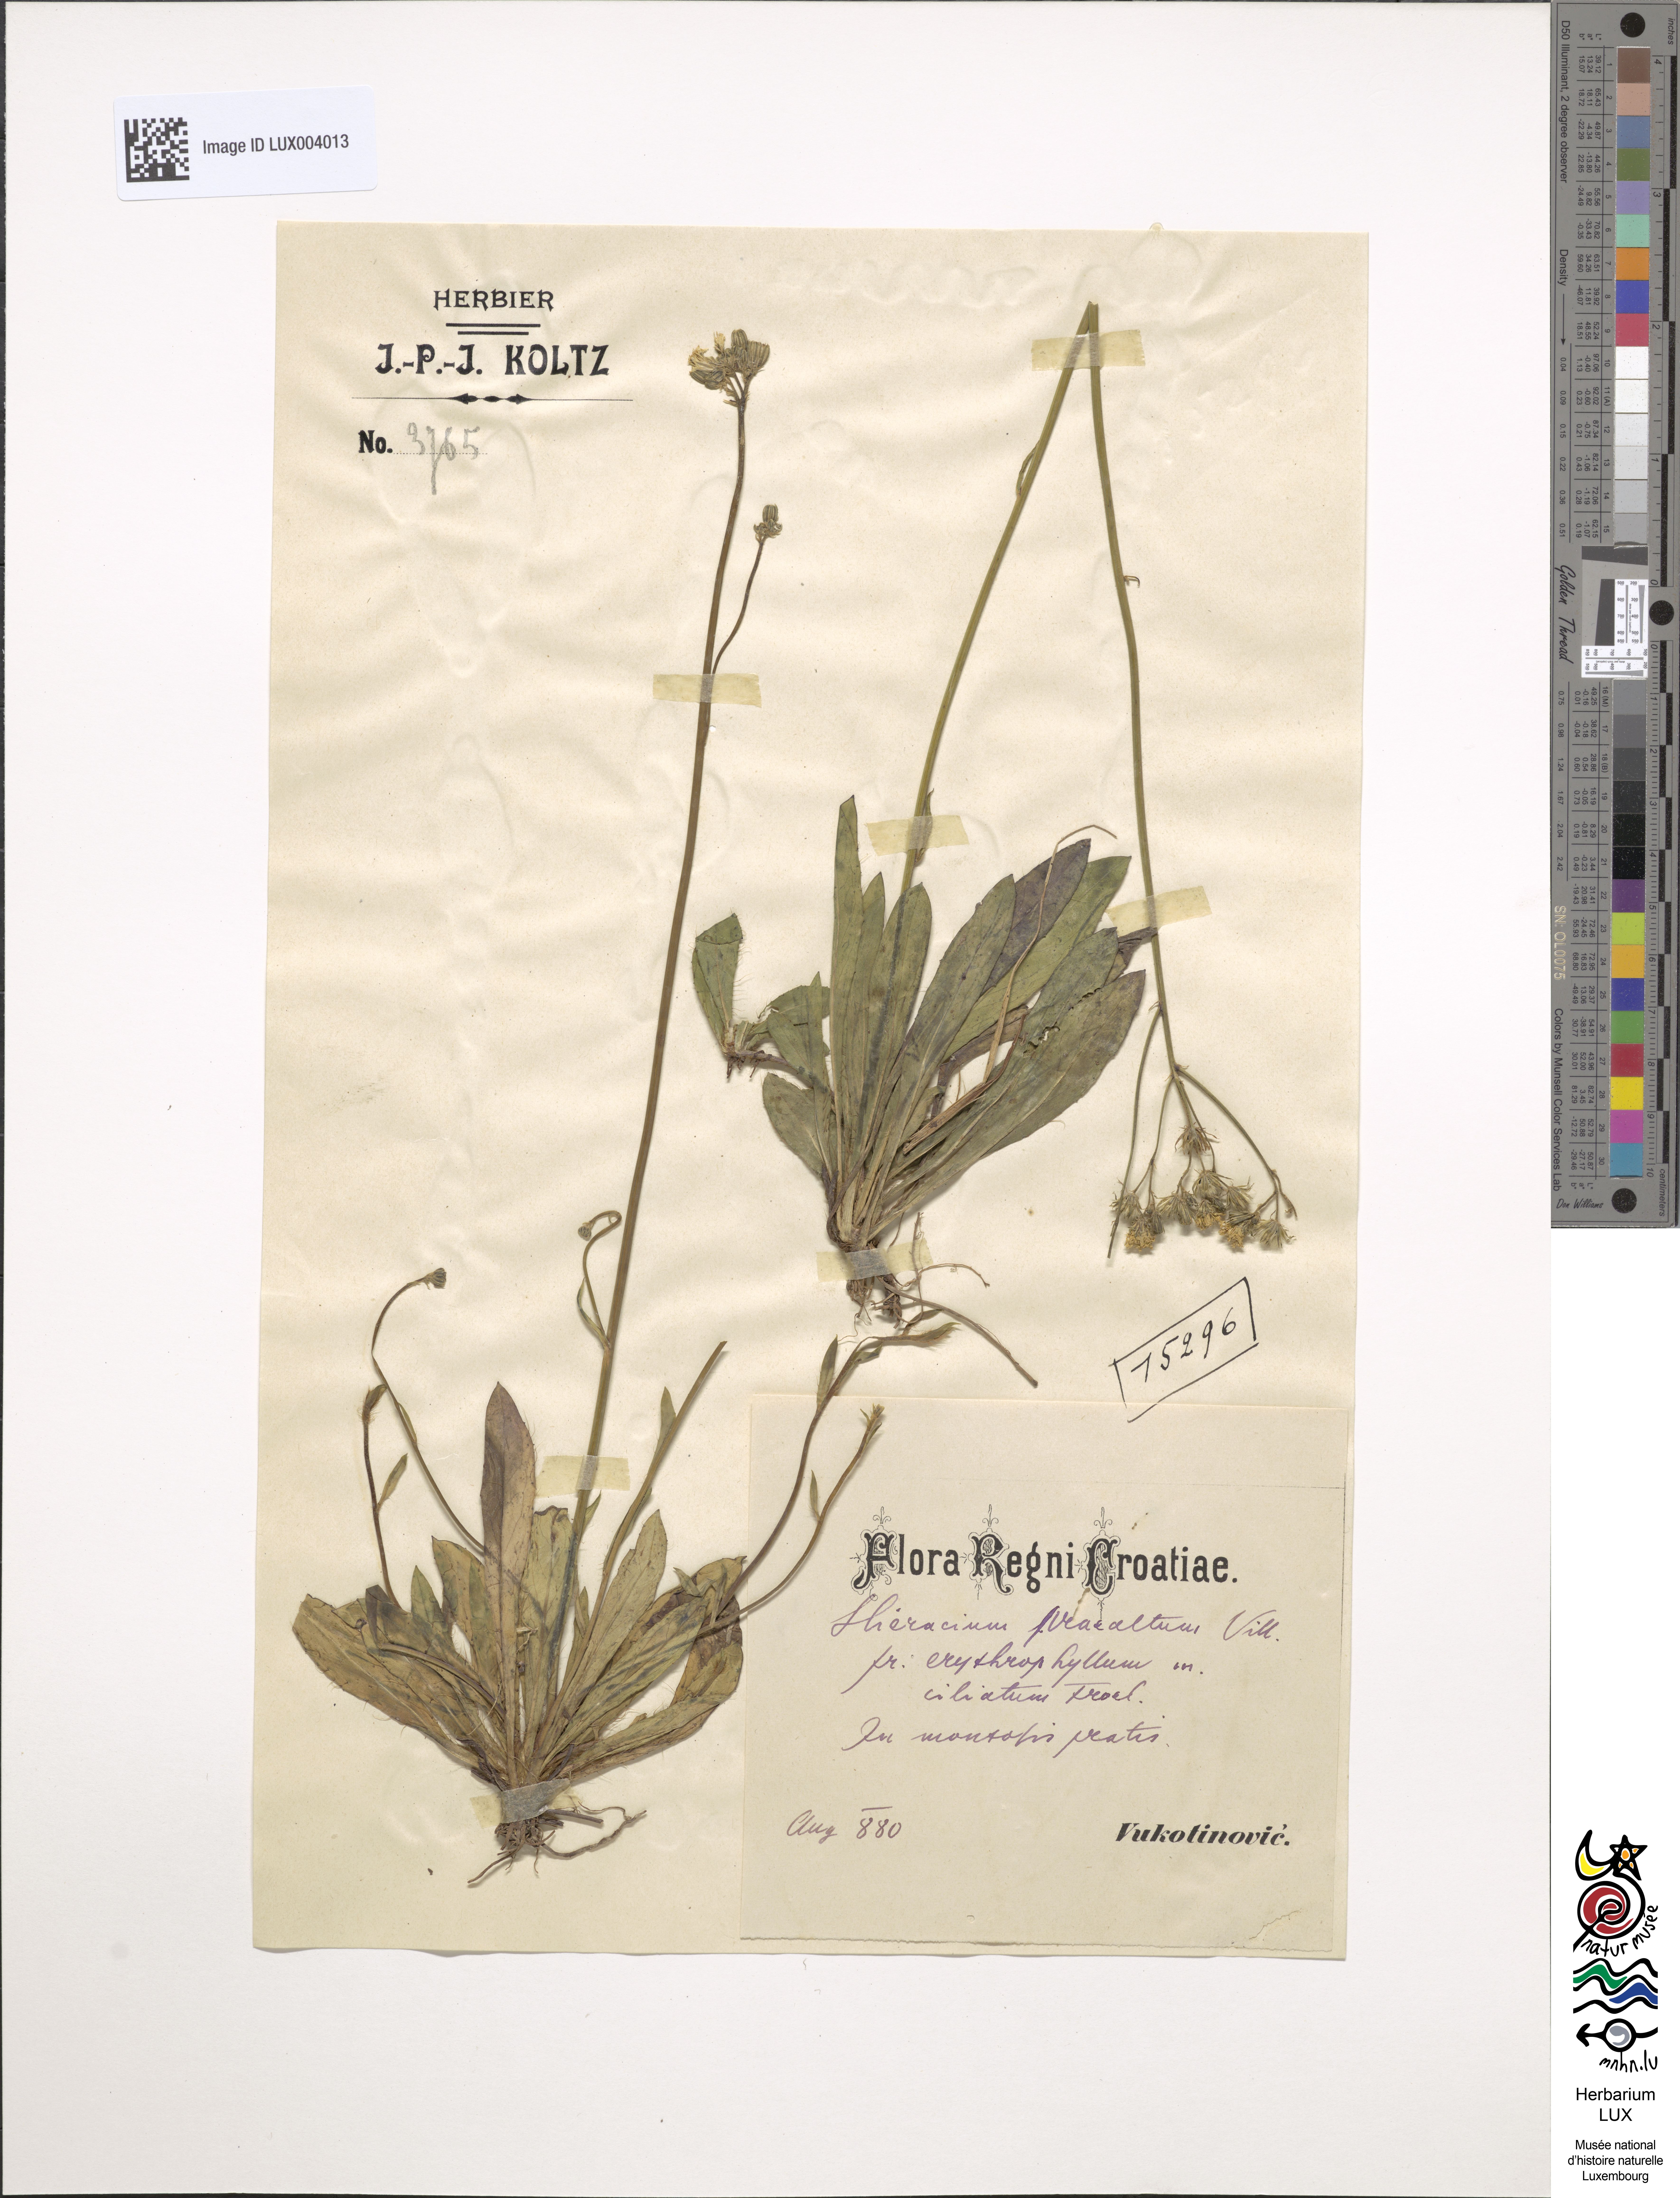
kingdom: Plantae
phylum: Tracheophyta
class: Magnoliopsida
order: Asterales
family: Asteraceae
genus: Pilosella
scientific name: Pilosella piloselloides
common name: Glaucous king-devil
